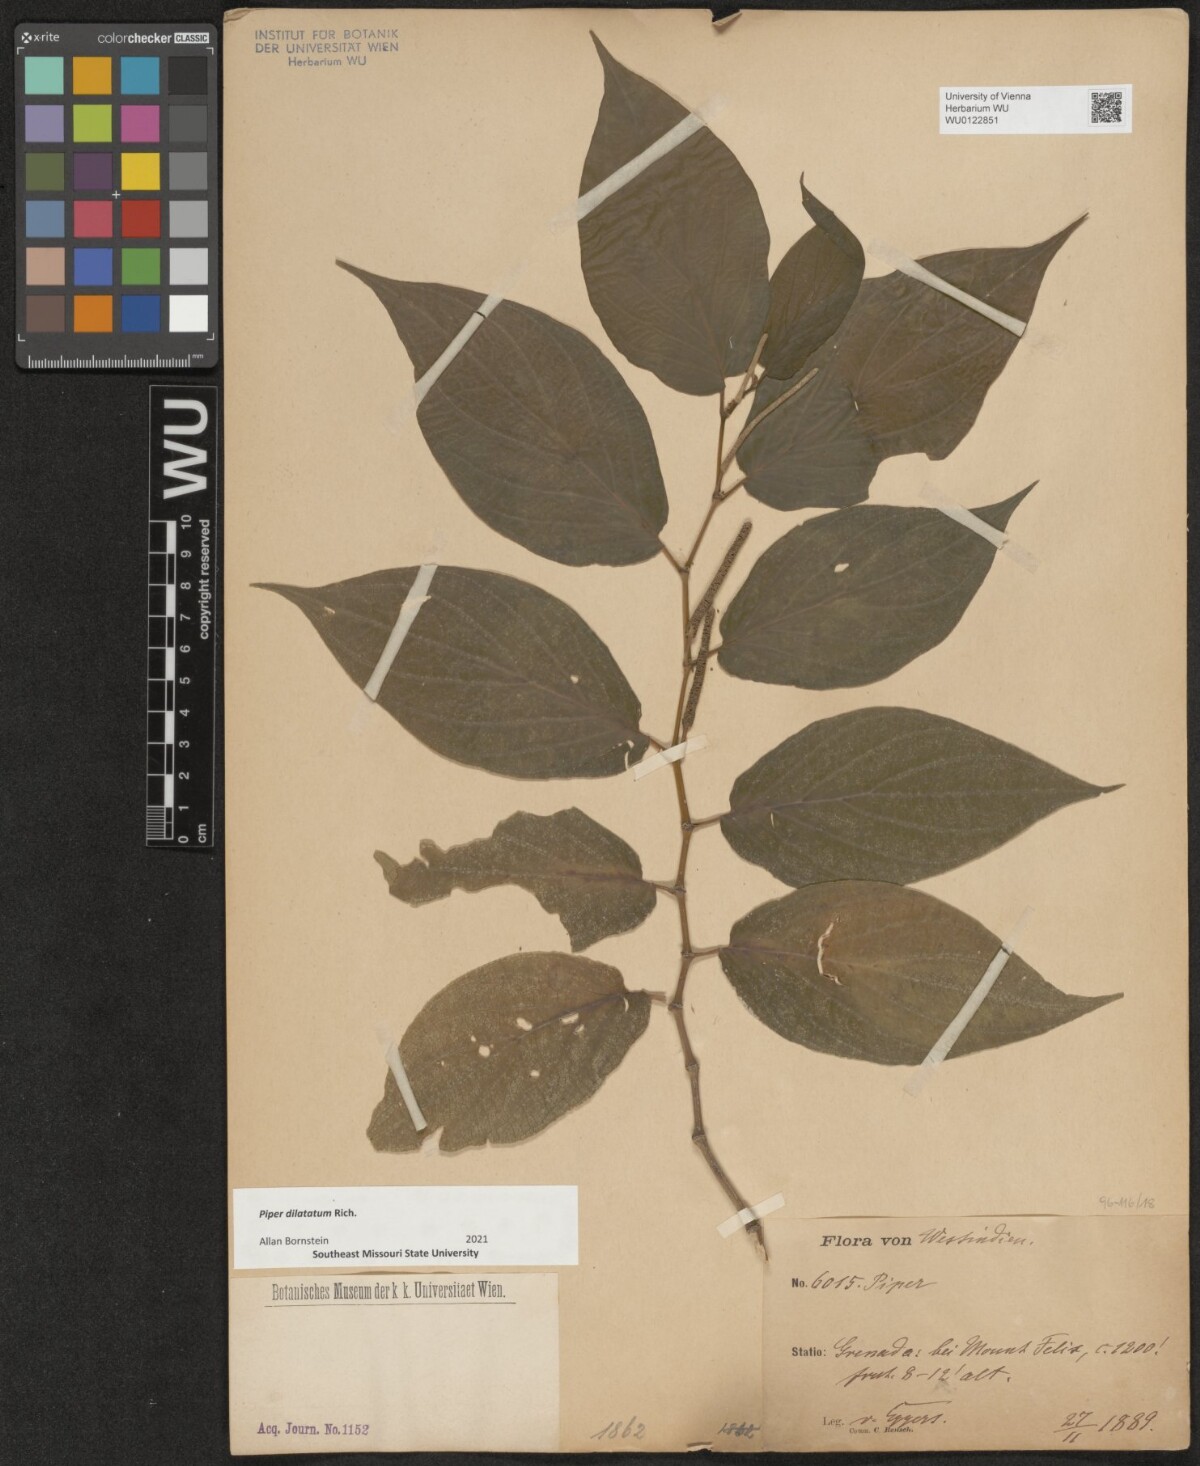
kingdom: Plantae
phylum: Tracheophyta
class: Magnoliopsida
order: Piperales
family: Piperaceae
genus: Piper
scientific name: Piper dilatatum
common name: Higuillo
